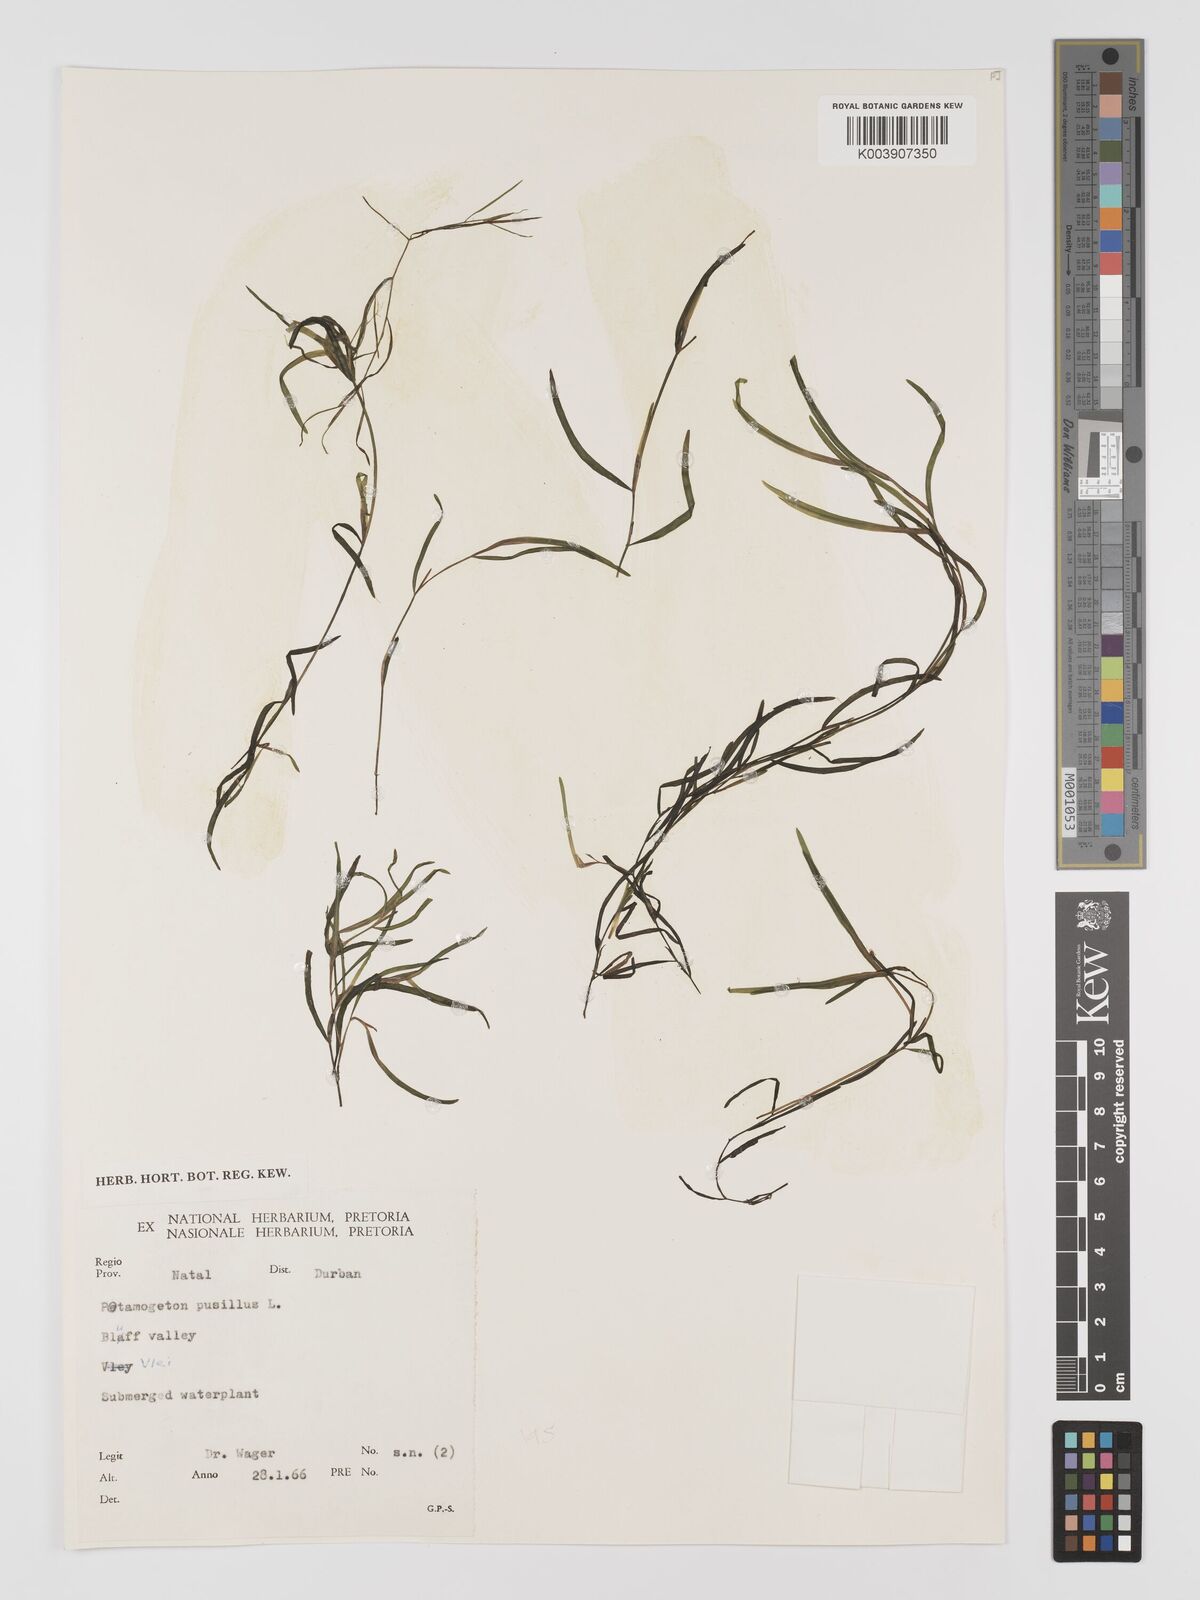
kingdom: Plantae
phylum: Tracheophyta
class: Liliopsida
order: Alismatales
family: Potamogetonaceae
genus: Potamogeton
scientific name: Potamogeton pusillus
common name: Lesser pondweed
